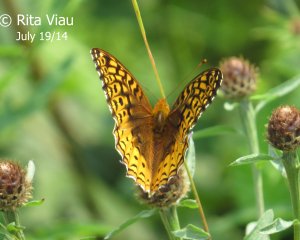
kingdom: Animalia
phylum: Arthropoda
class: Insecta
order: Lepidoptera
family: Nymphalidae
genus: Speyeria
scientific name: Speyeria cybele
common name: Great Spangled Fritillary
